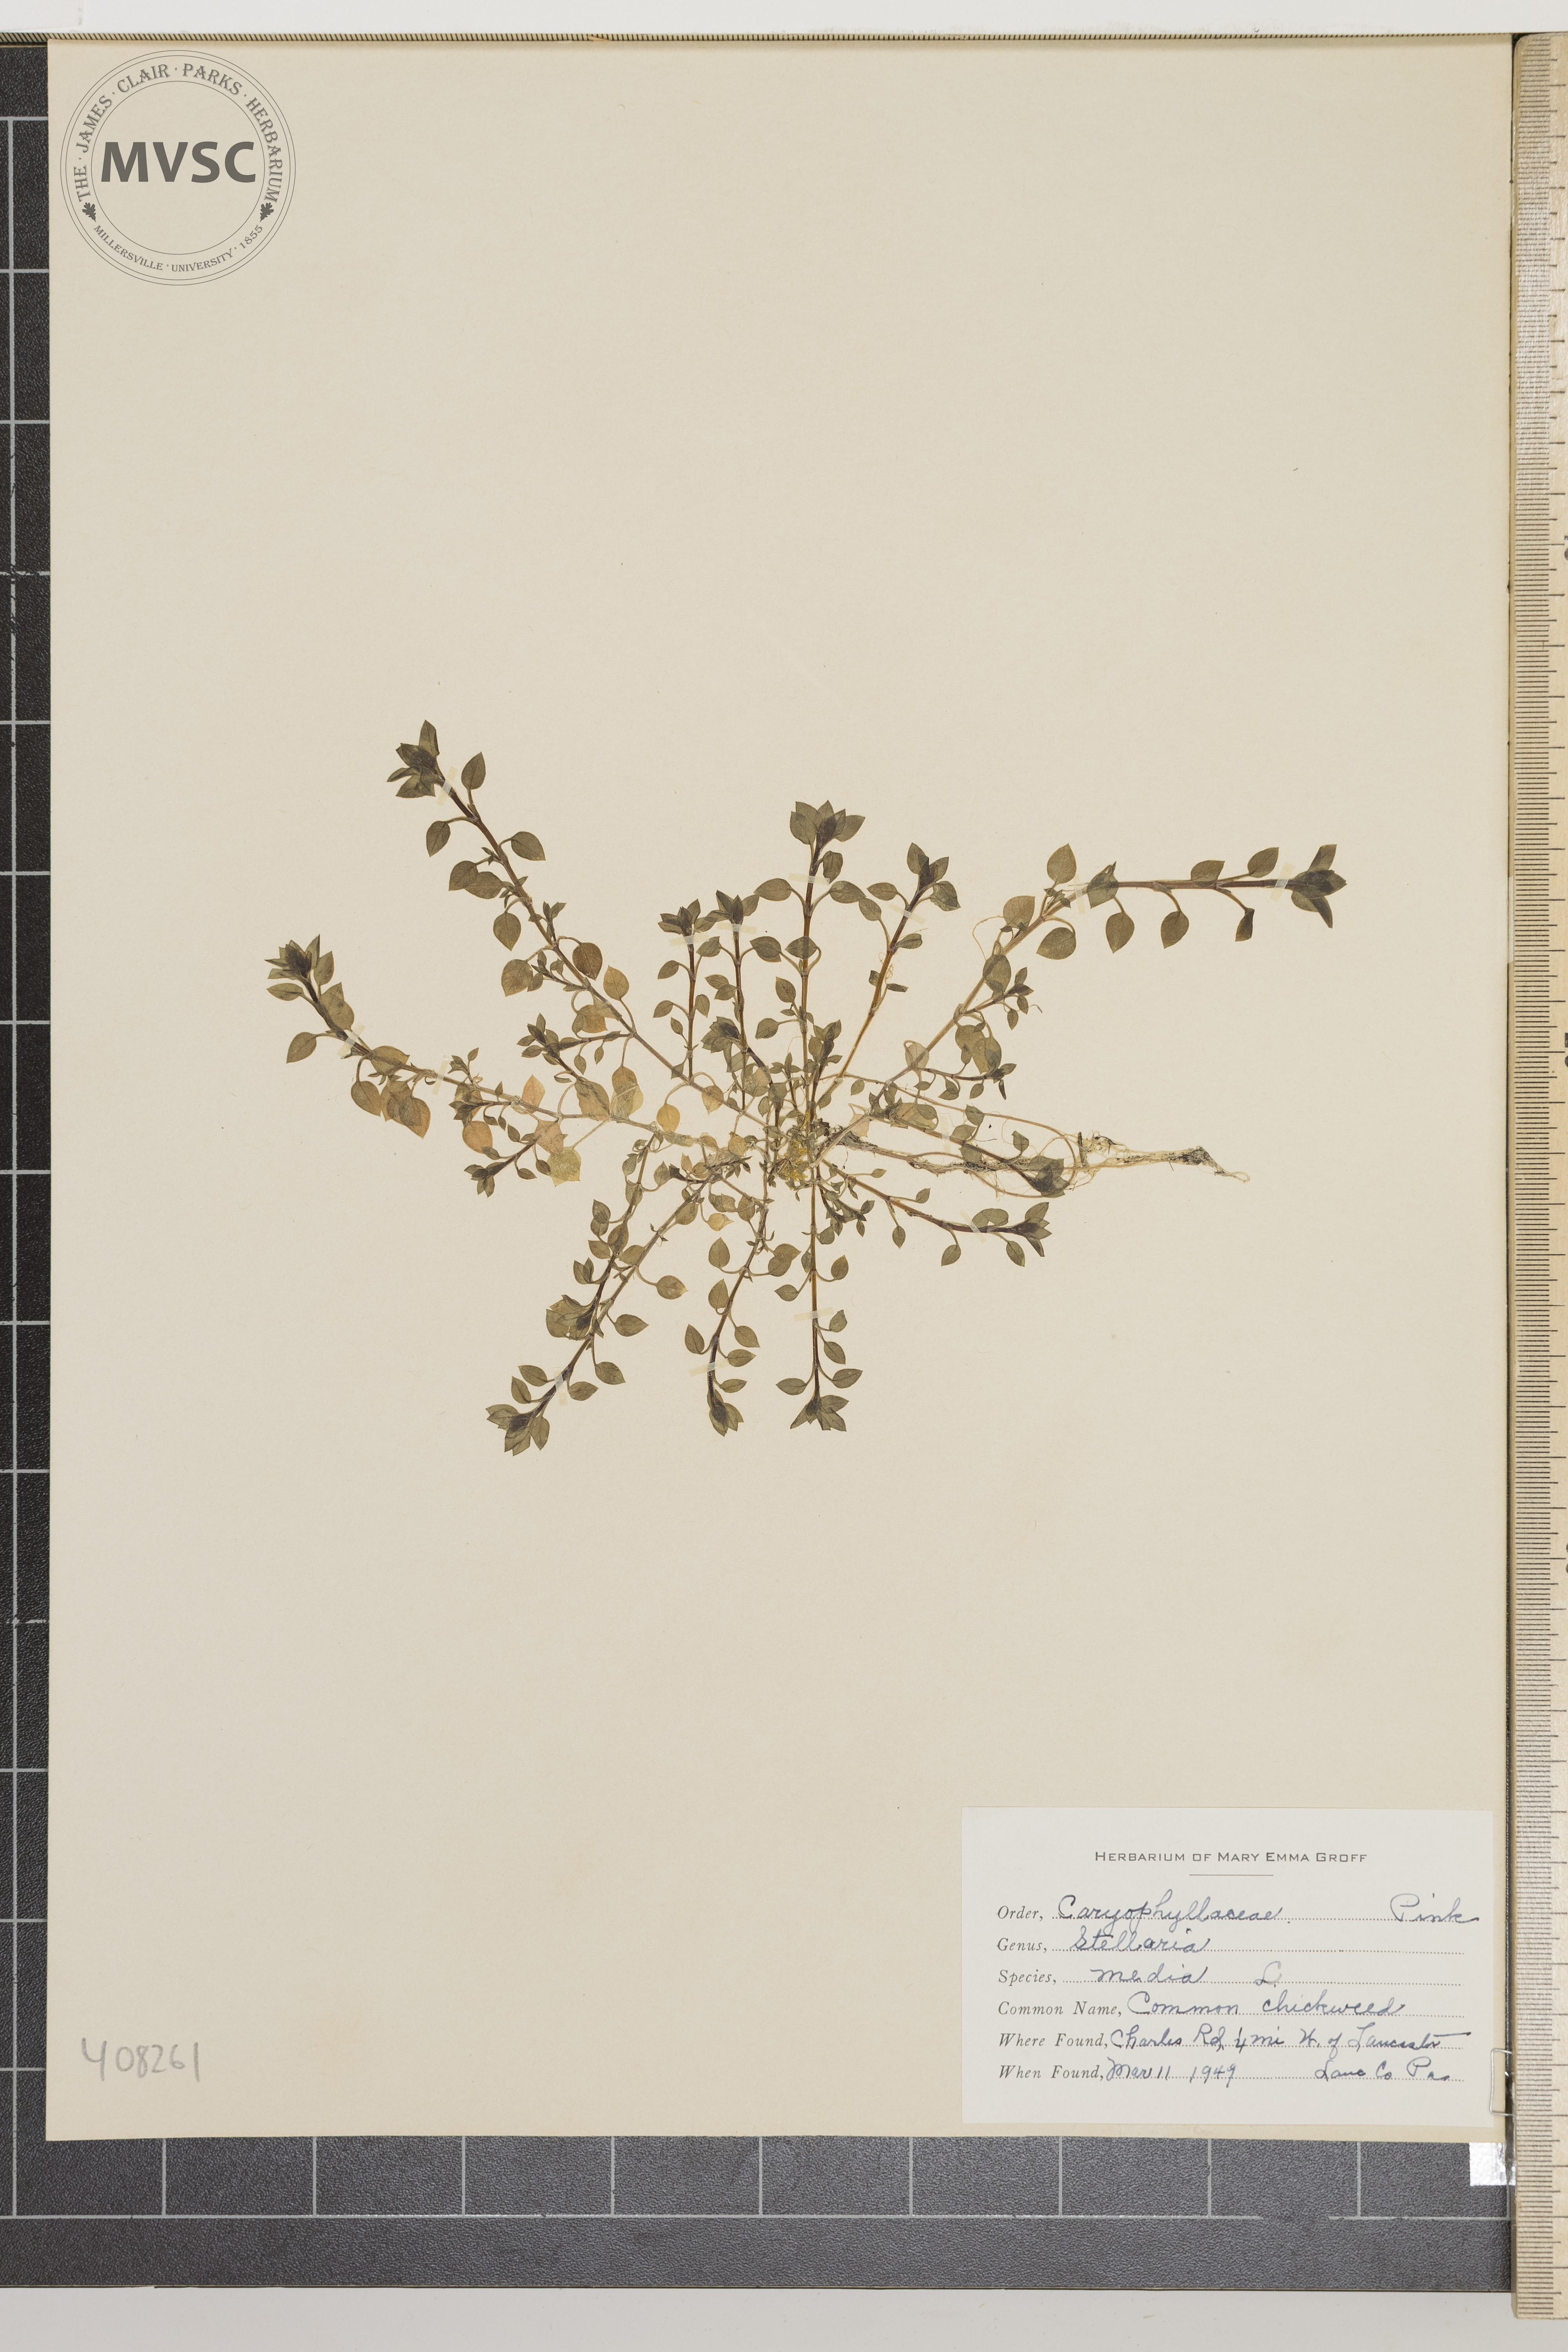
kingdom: Plantae
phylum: Tracheophyta
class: Magnoliopsida
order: Caryophyllales
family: Caryophyllaceae
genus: Stellaria
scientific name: Stellaria media
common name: Common Chickweed
